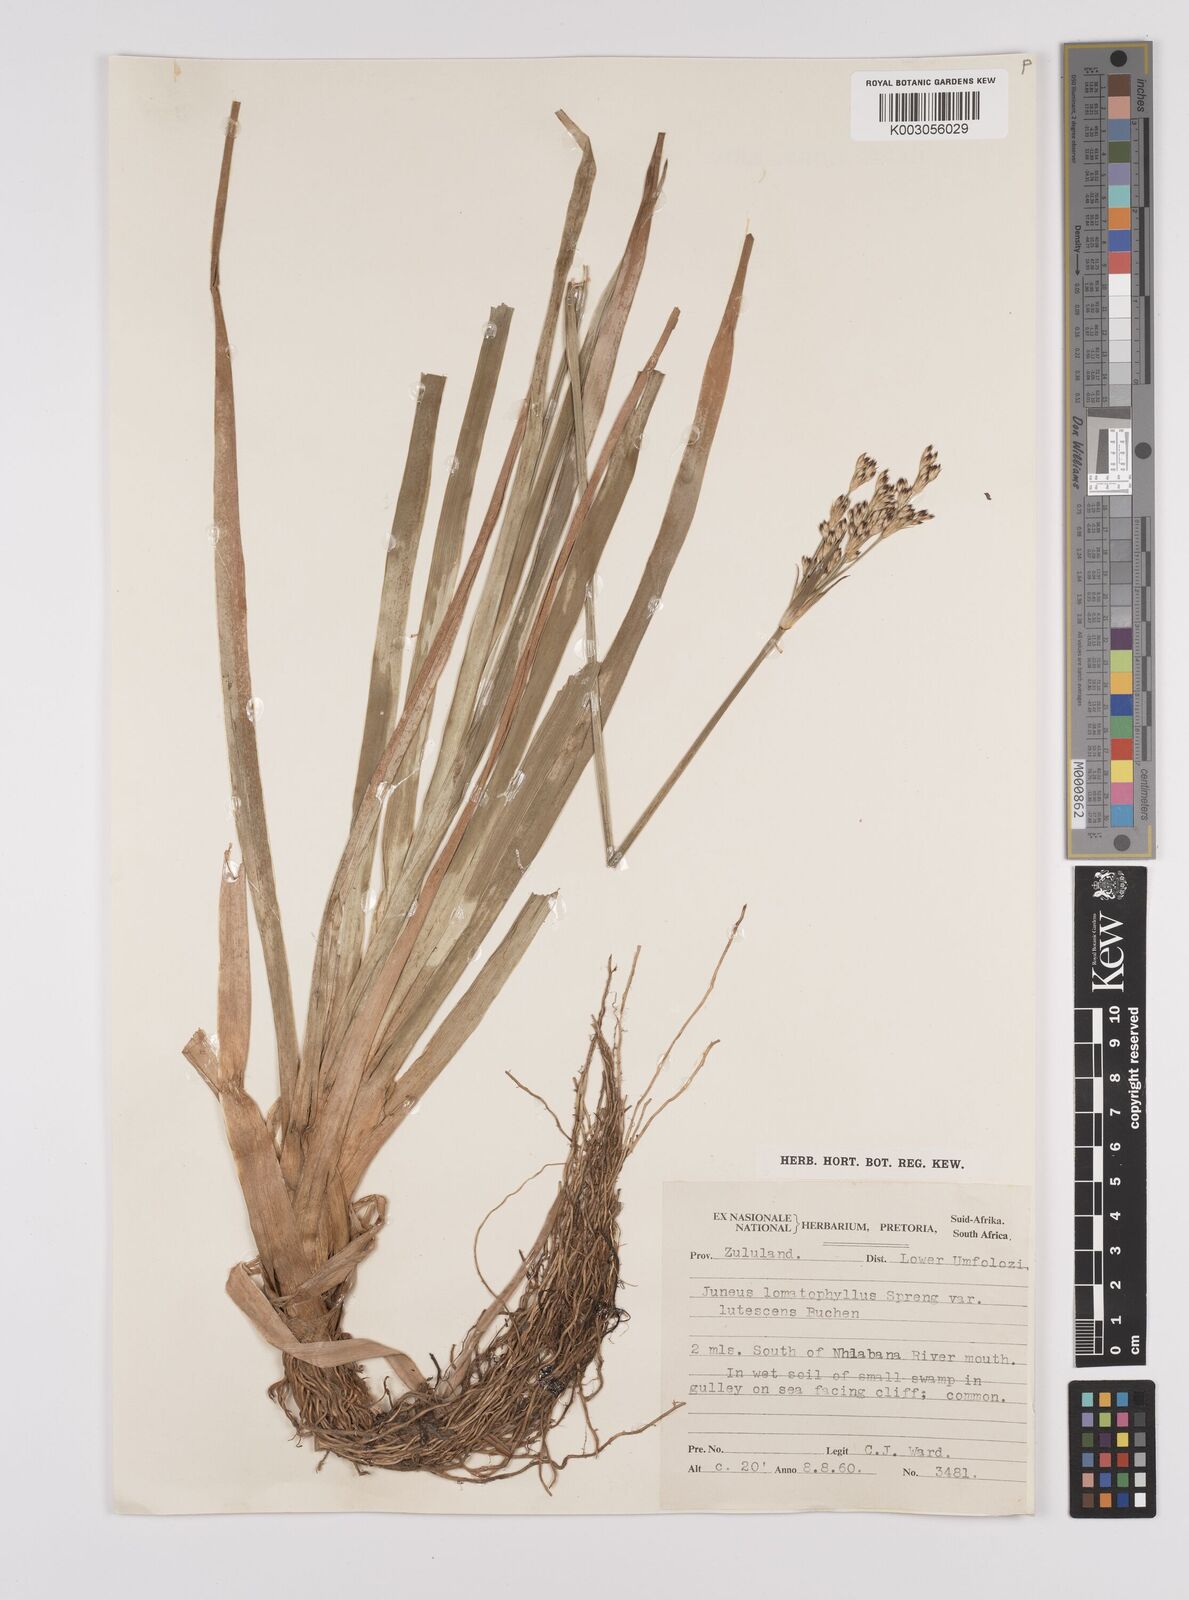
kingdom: Plantae
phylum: Tracheophyta
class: Liliopsida
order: Poales
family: Juncaceae
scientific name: Juncaceae
